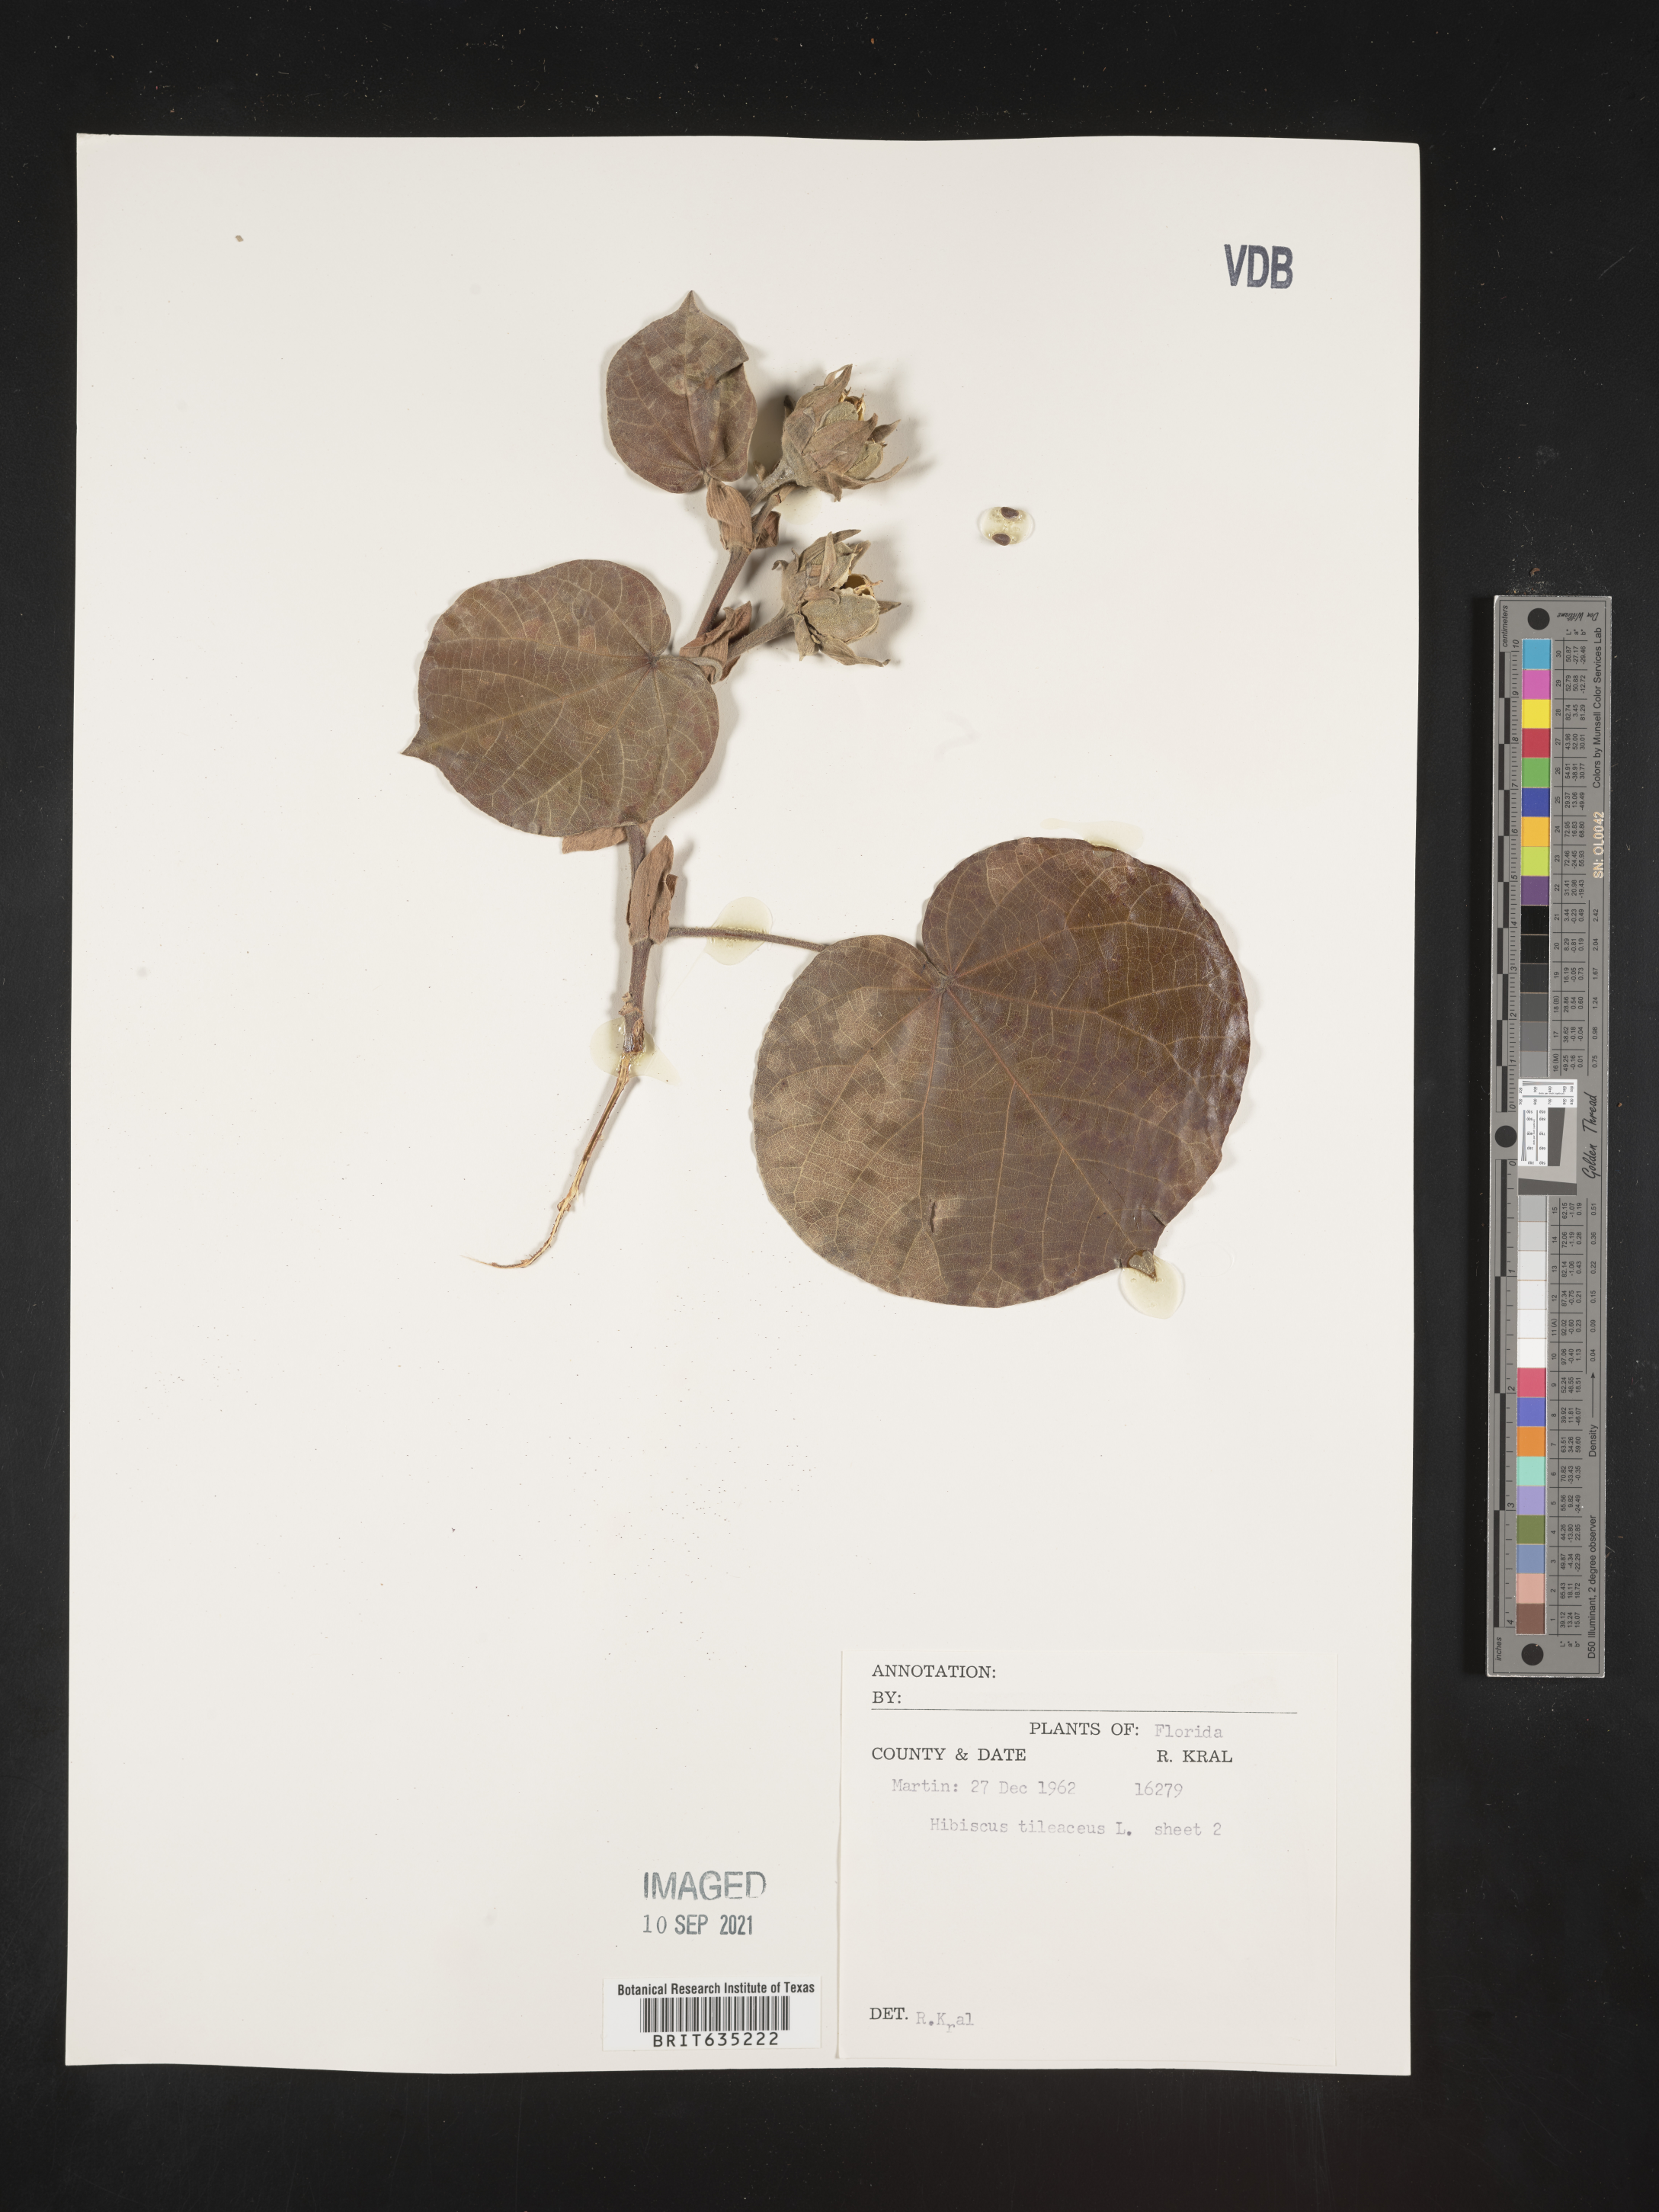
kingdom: Plantae
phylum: Tracheophyta
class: Magnoliopsida
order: Malvales
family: Malvaceae
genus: Hibiscus
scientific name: Hibiscus
